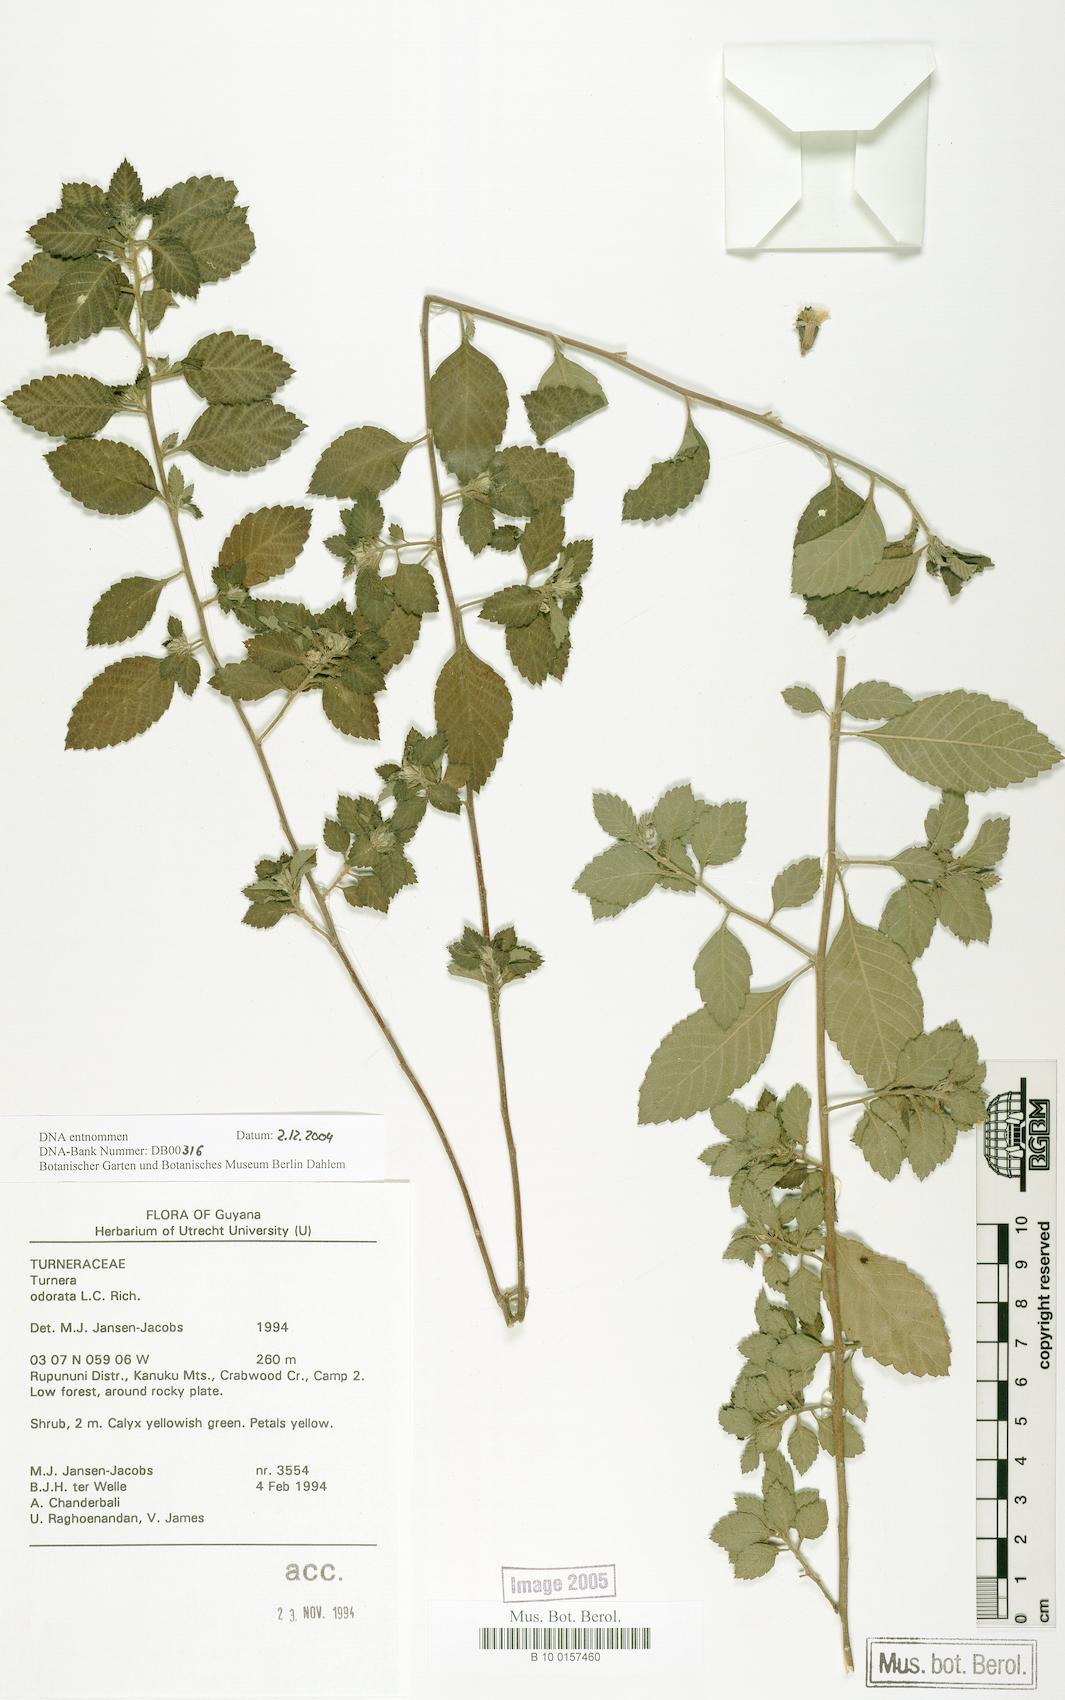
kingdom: Plantae
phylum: Tracheophyta
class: Magnoliopsida
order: Malpighiales
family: Turneraceae
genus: Turnera
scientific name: Turnera odorata
